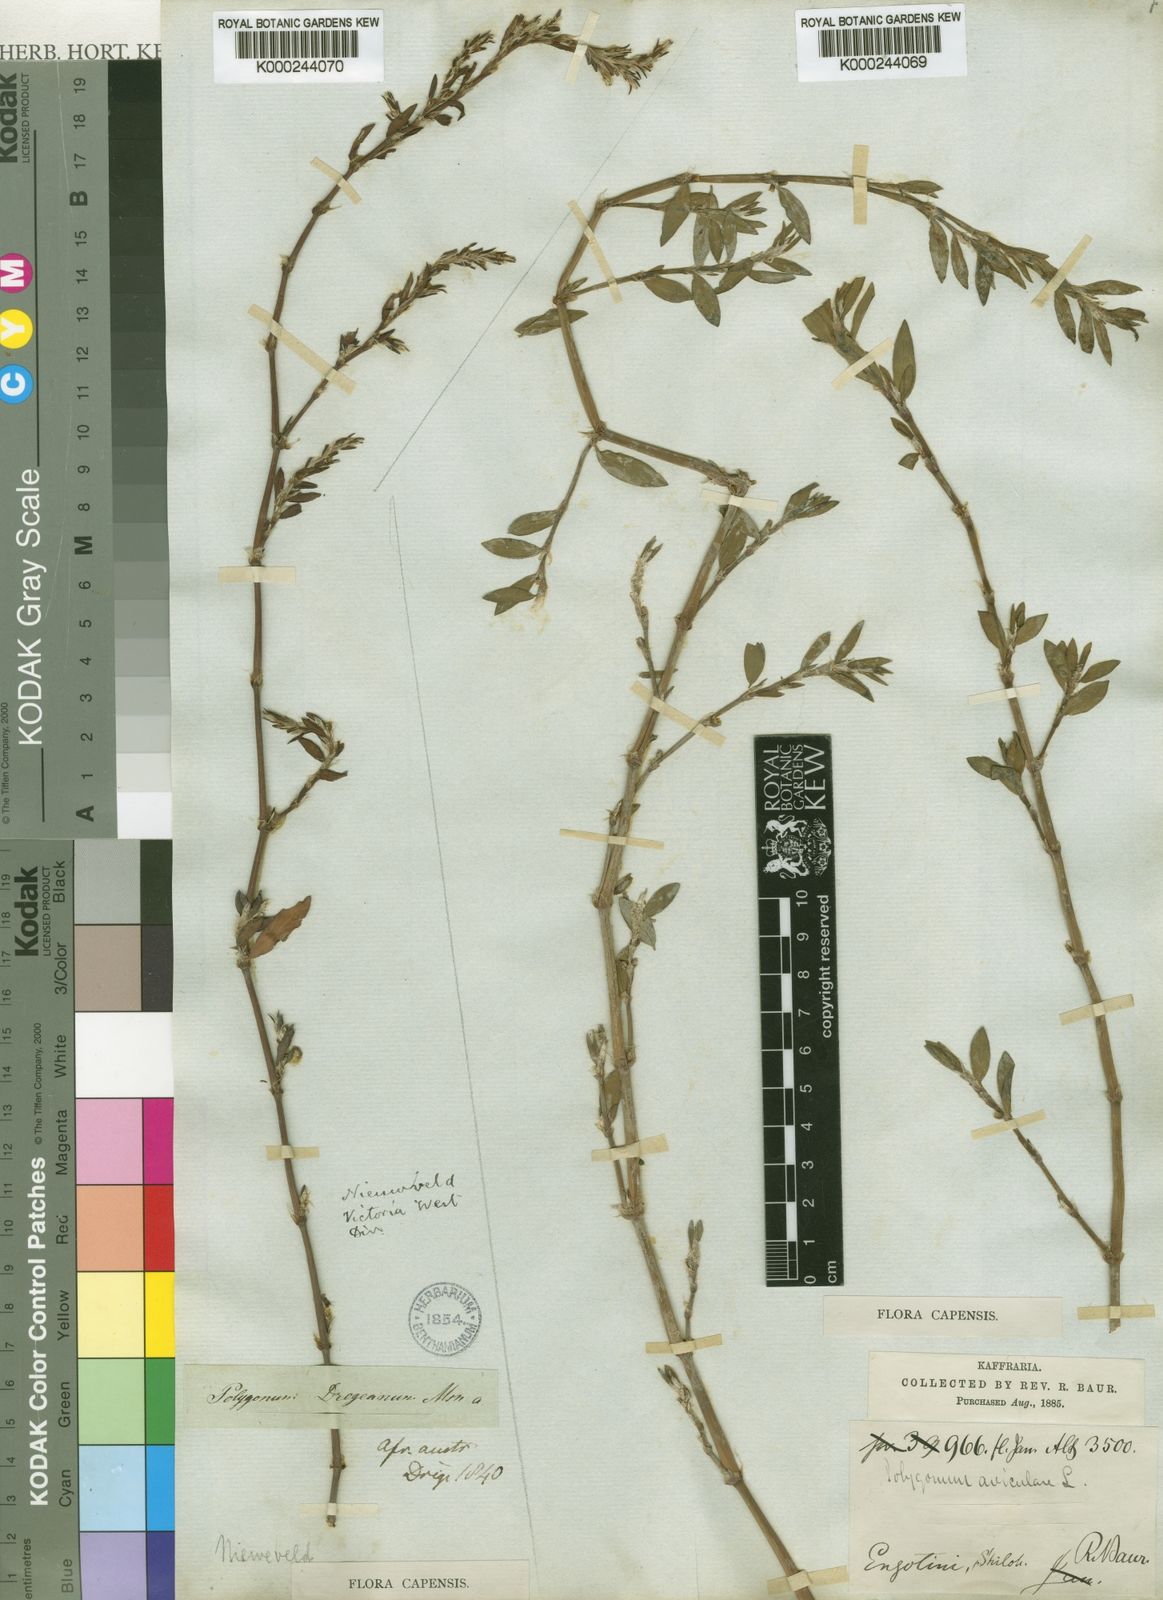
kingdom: Plantae
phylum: Tracheophyta
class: Magnoliopsida
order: Caryophyllales
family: Polygonaceae
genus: Polygonum
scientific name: Polygonum aviculare
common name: Prostrate knotweed
